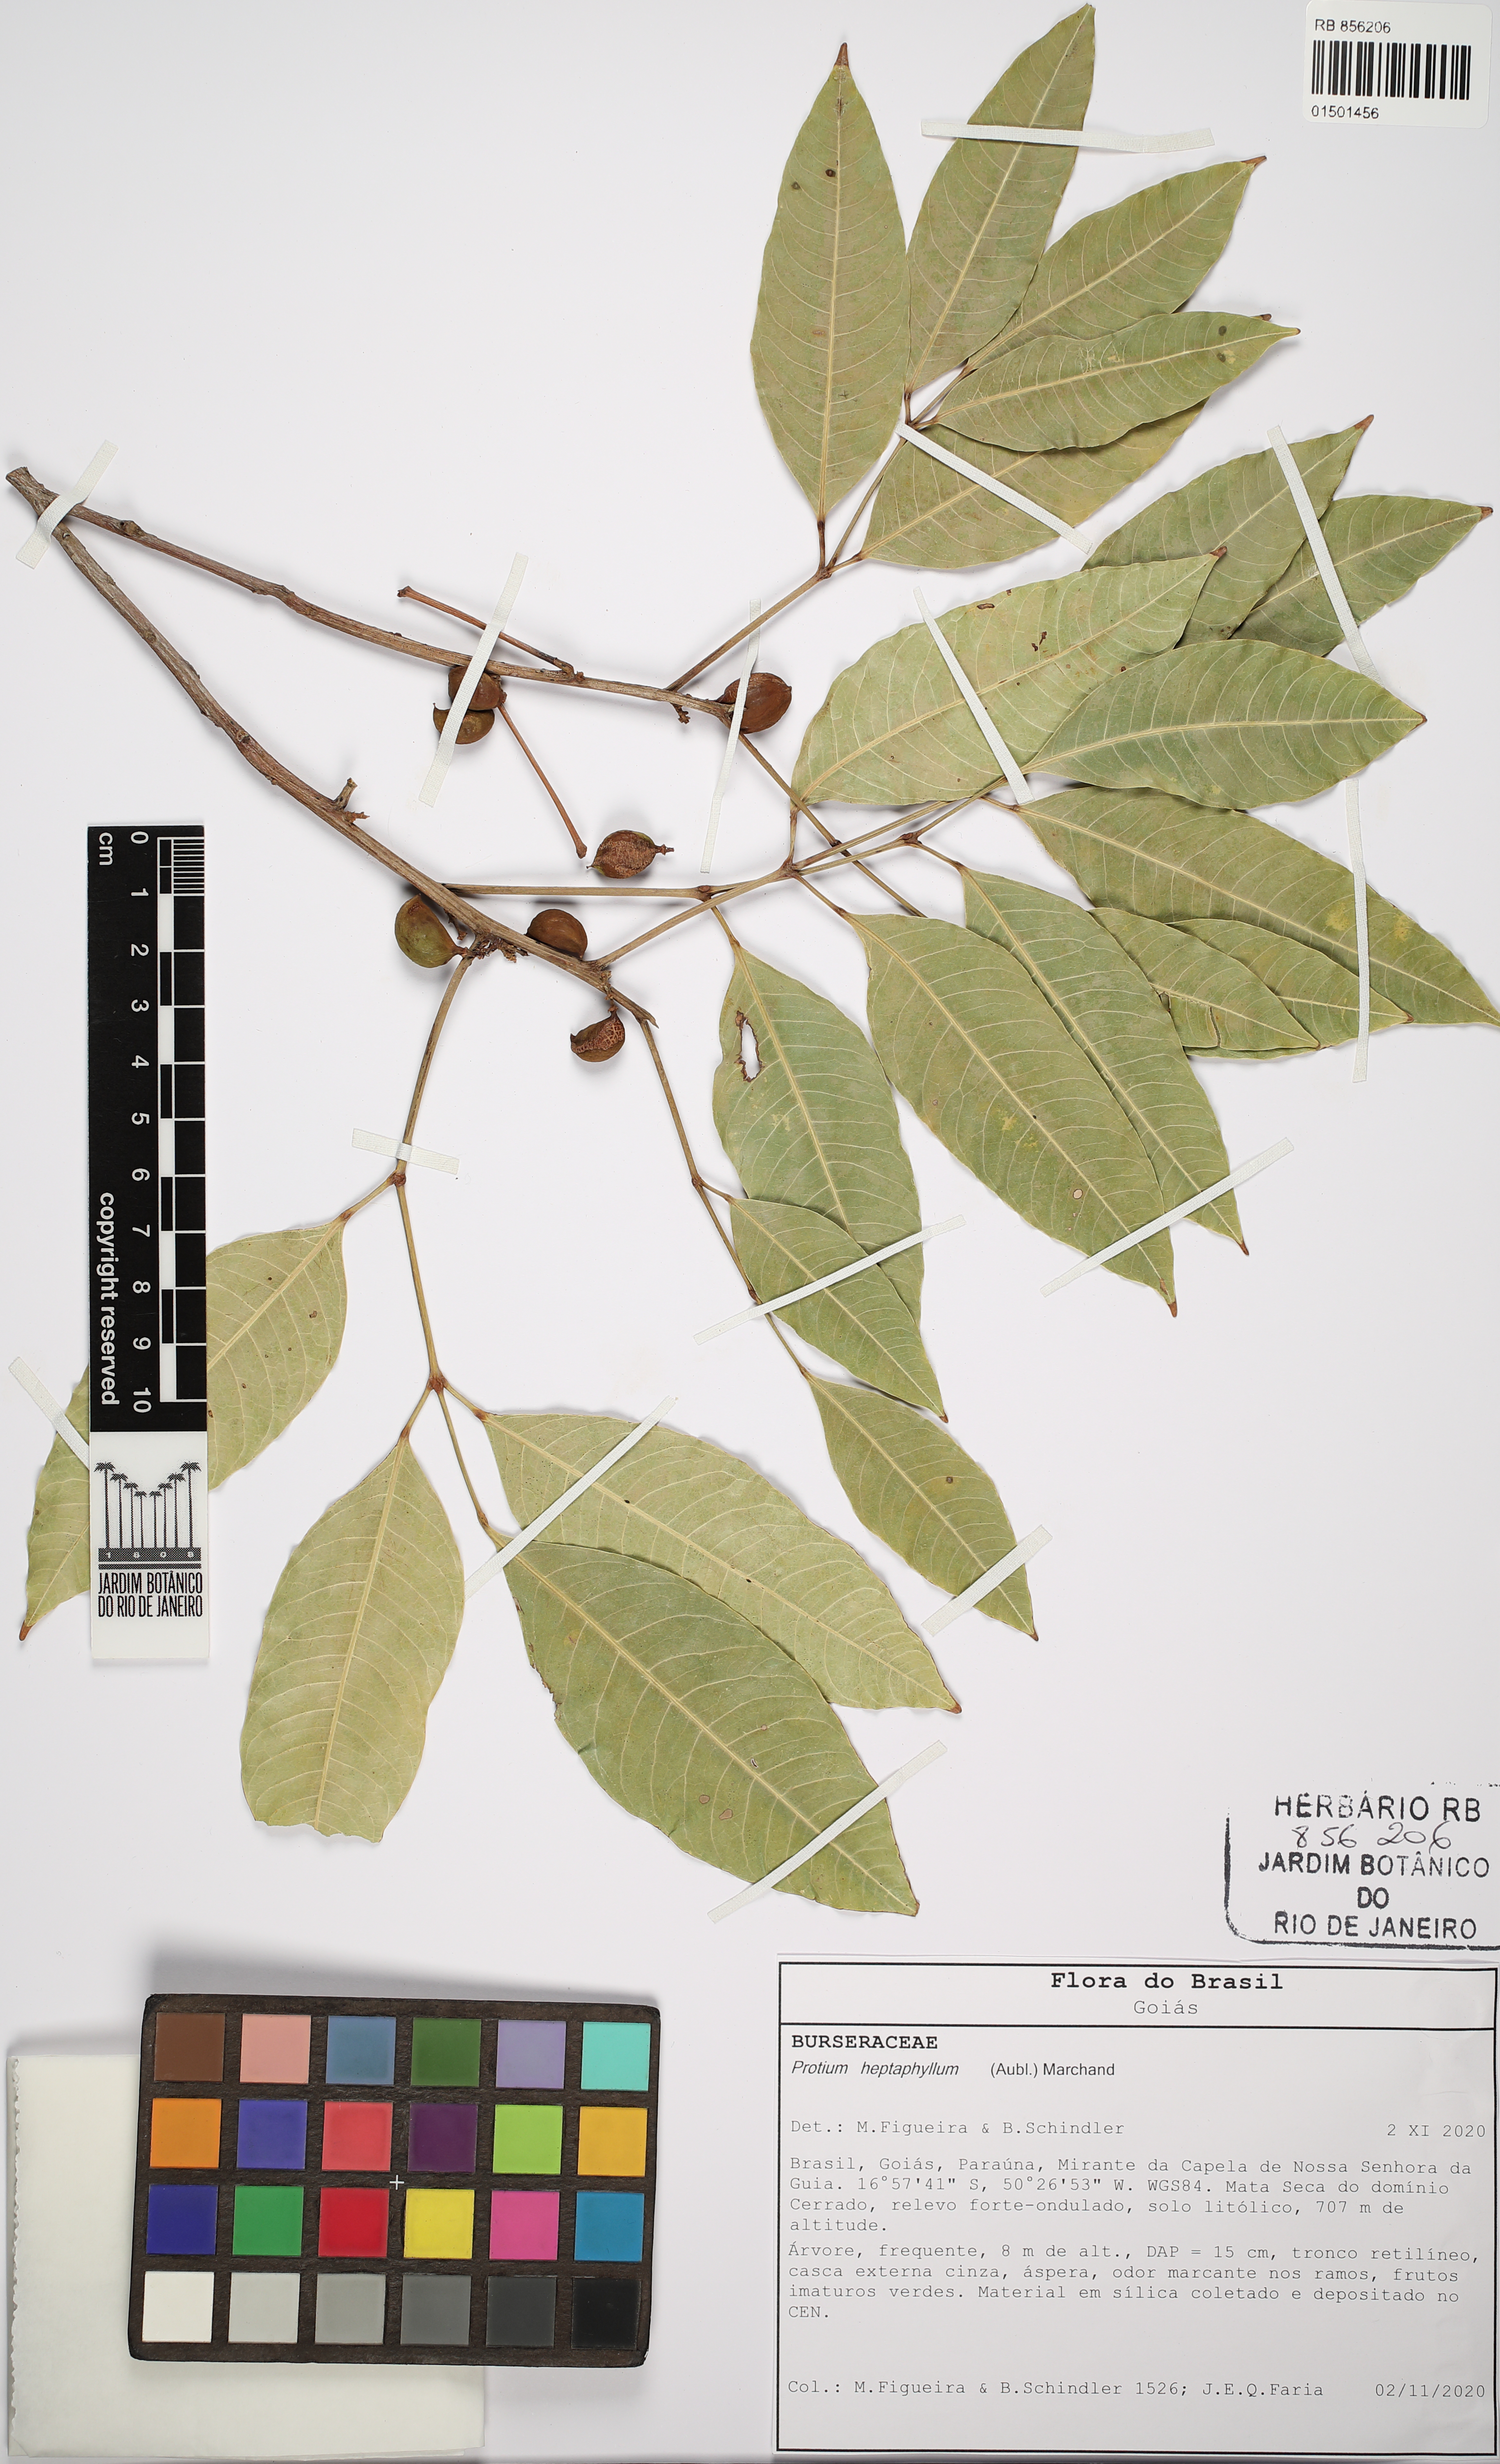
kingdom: Plantae
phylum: Tracheophyta
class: Magnoliopsida
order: Sapindales
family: Burseraceae
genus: Protium
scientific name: Protium heptaphyllum
